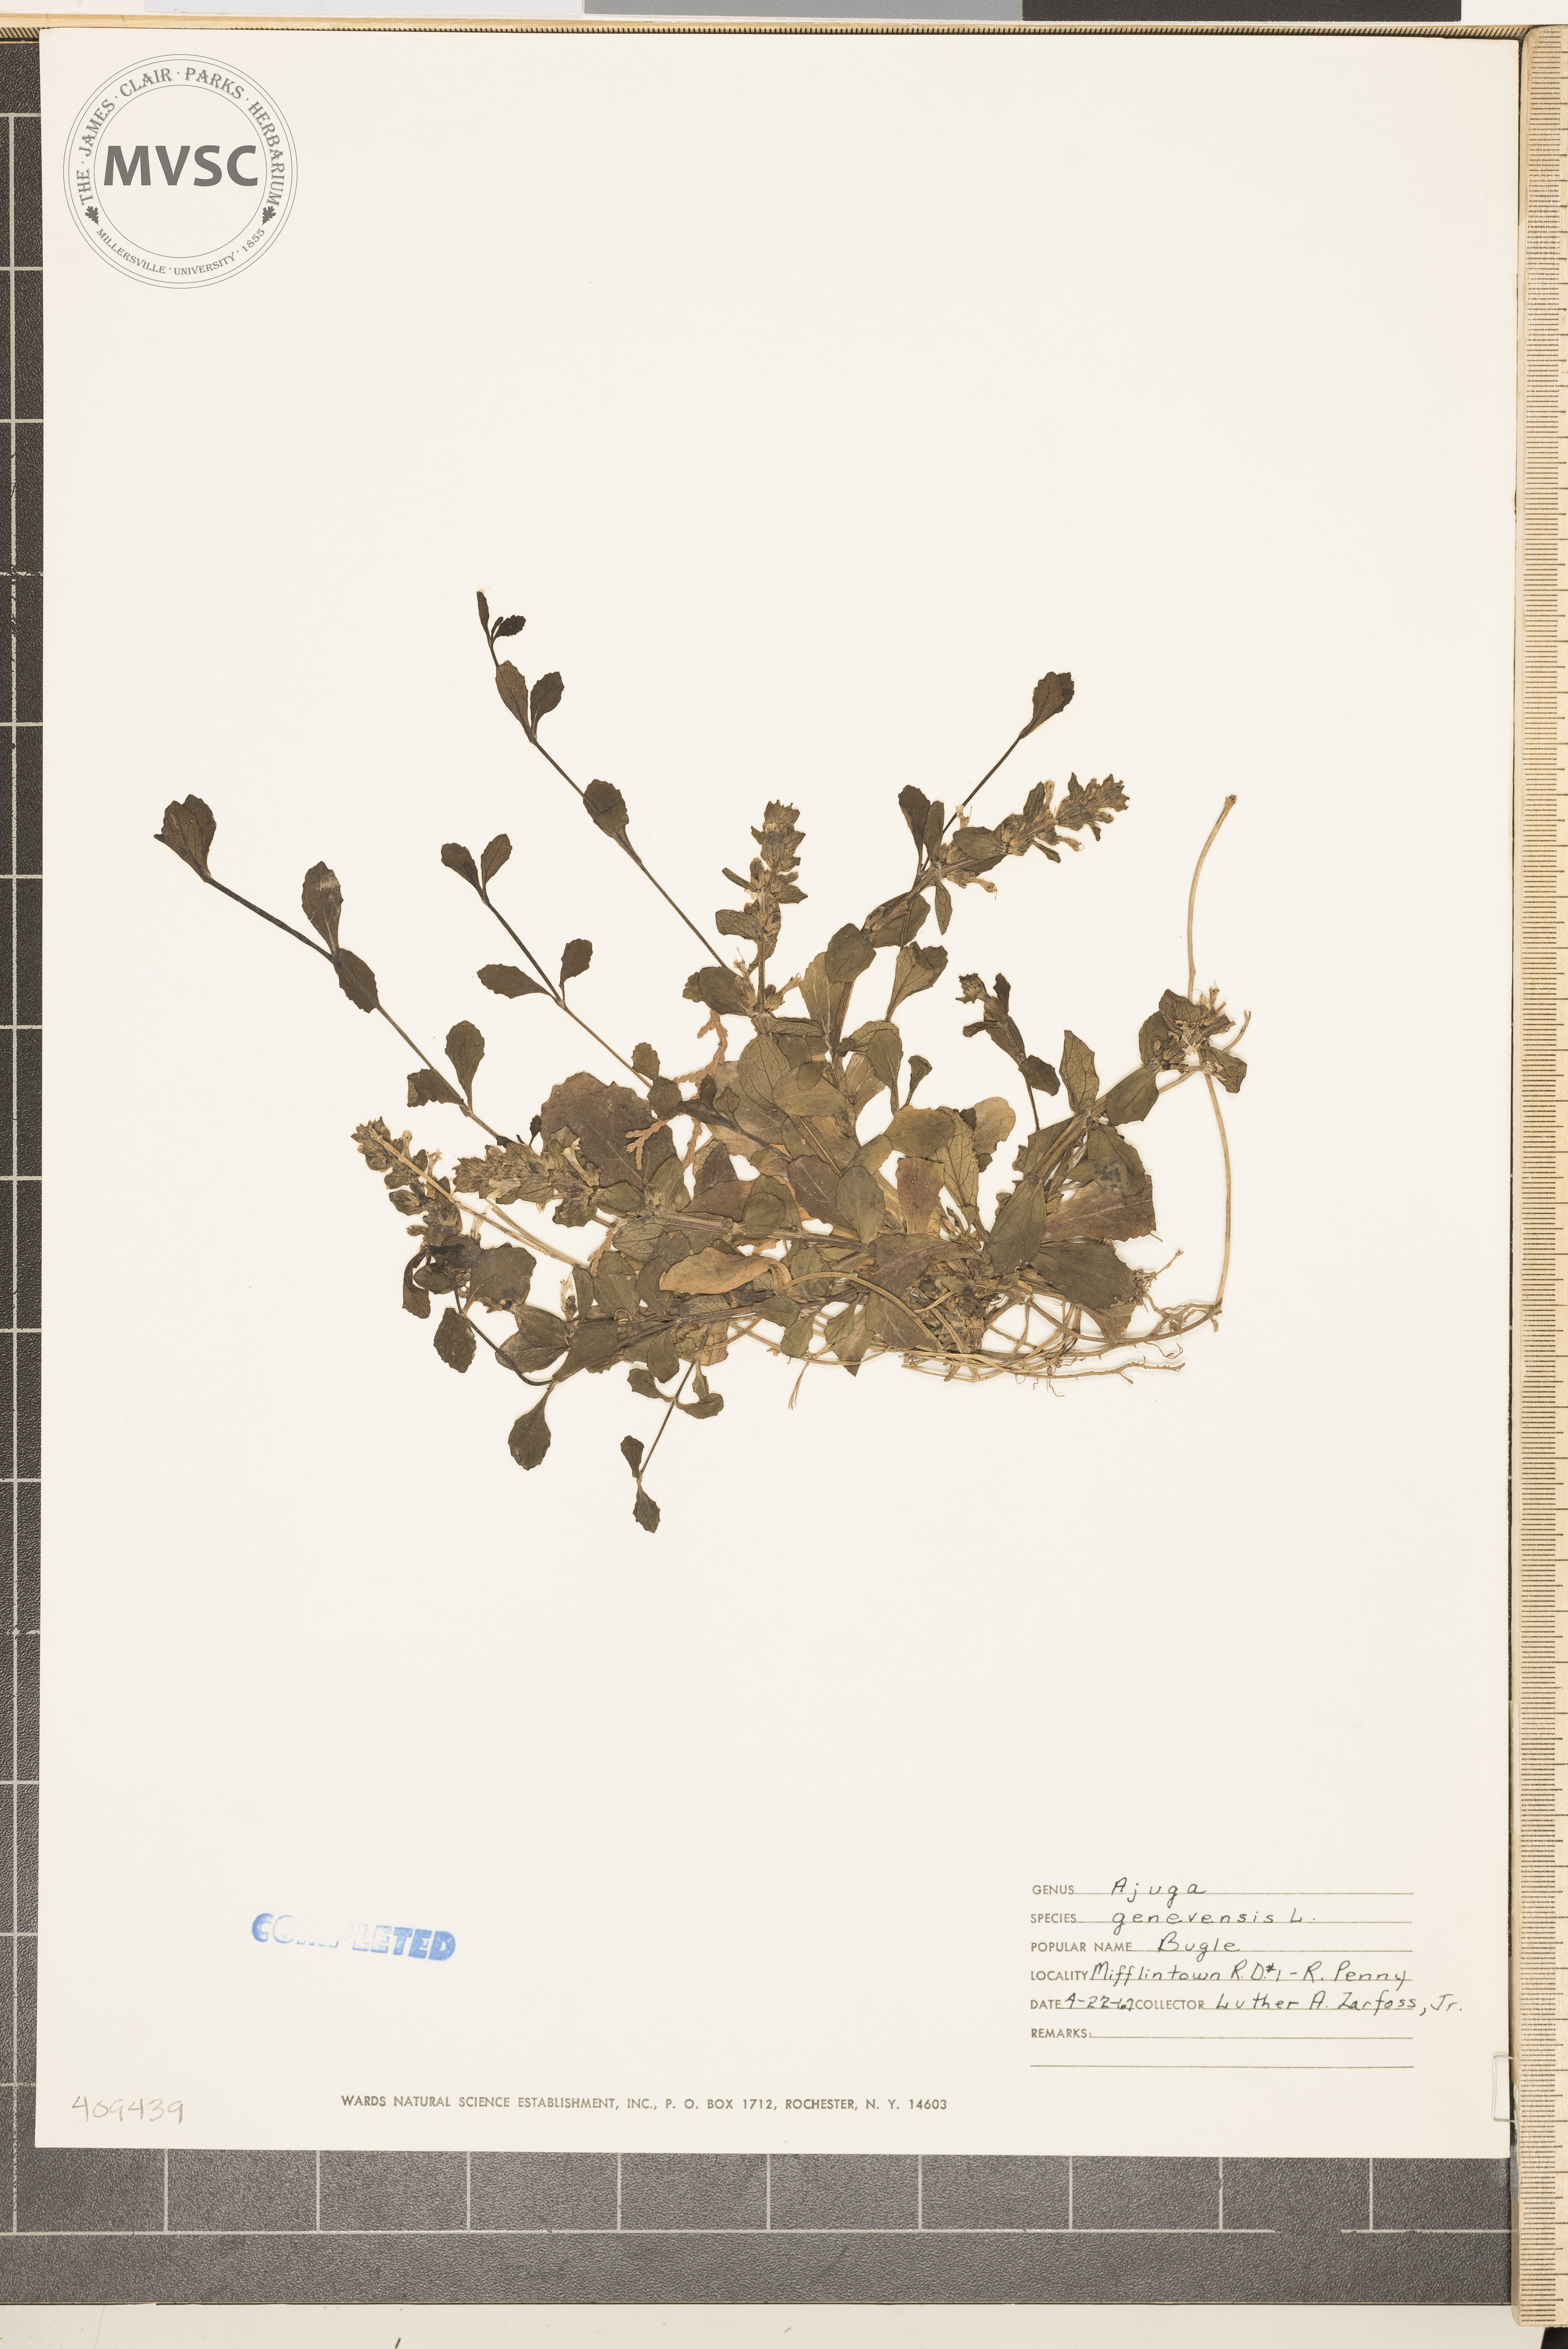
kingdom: Plantae
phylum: Tracheophyta
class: Magnoliopsida
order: Lamiales
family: Lamiaceae
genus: Ajuga
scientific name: Ajuga genevensis
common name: Blue bugle
